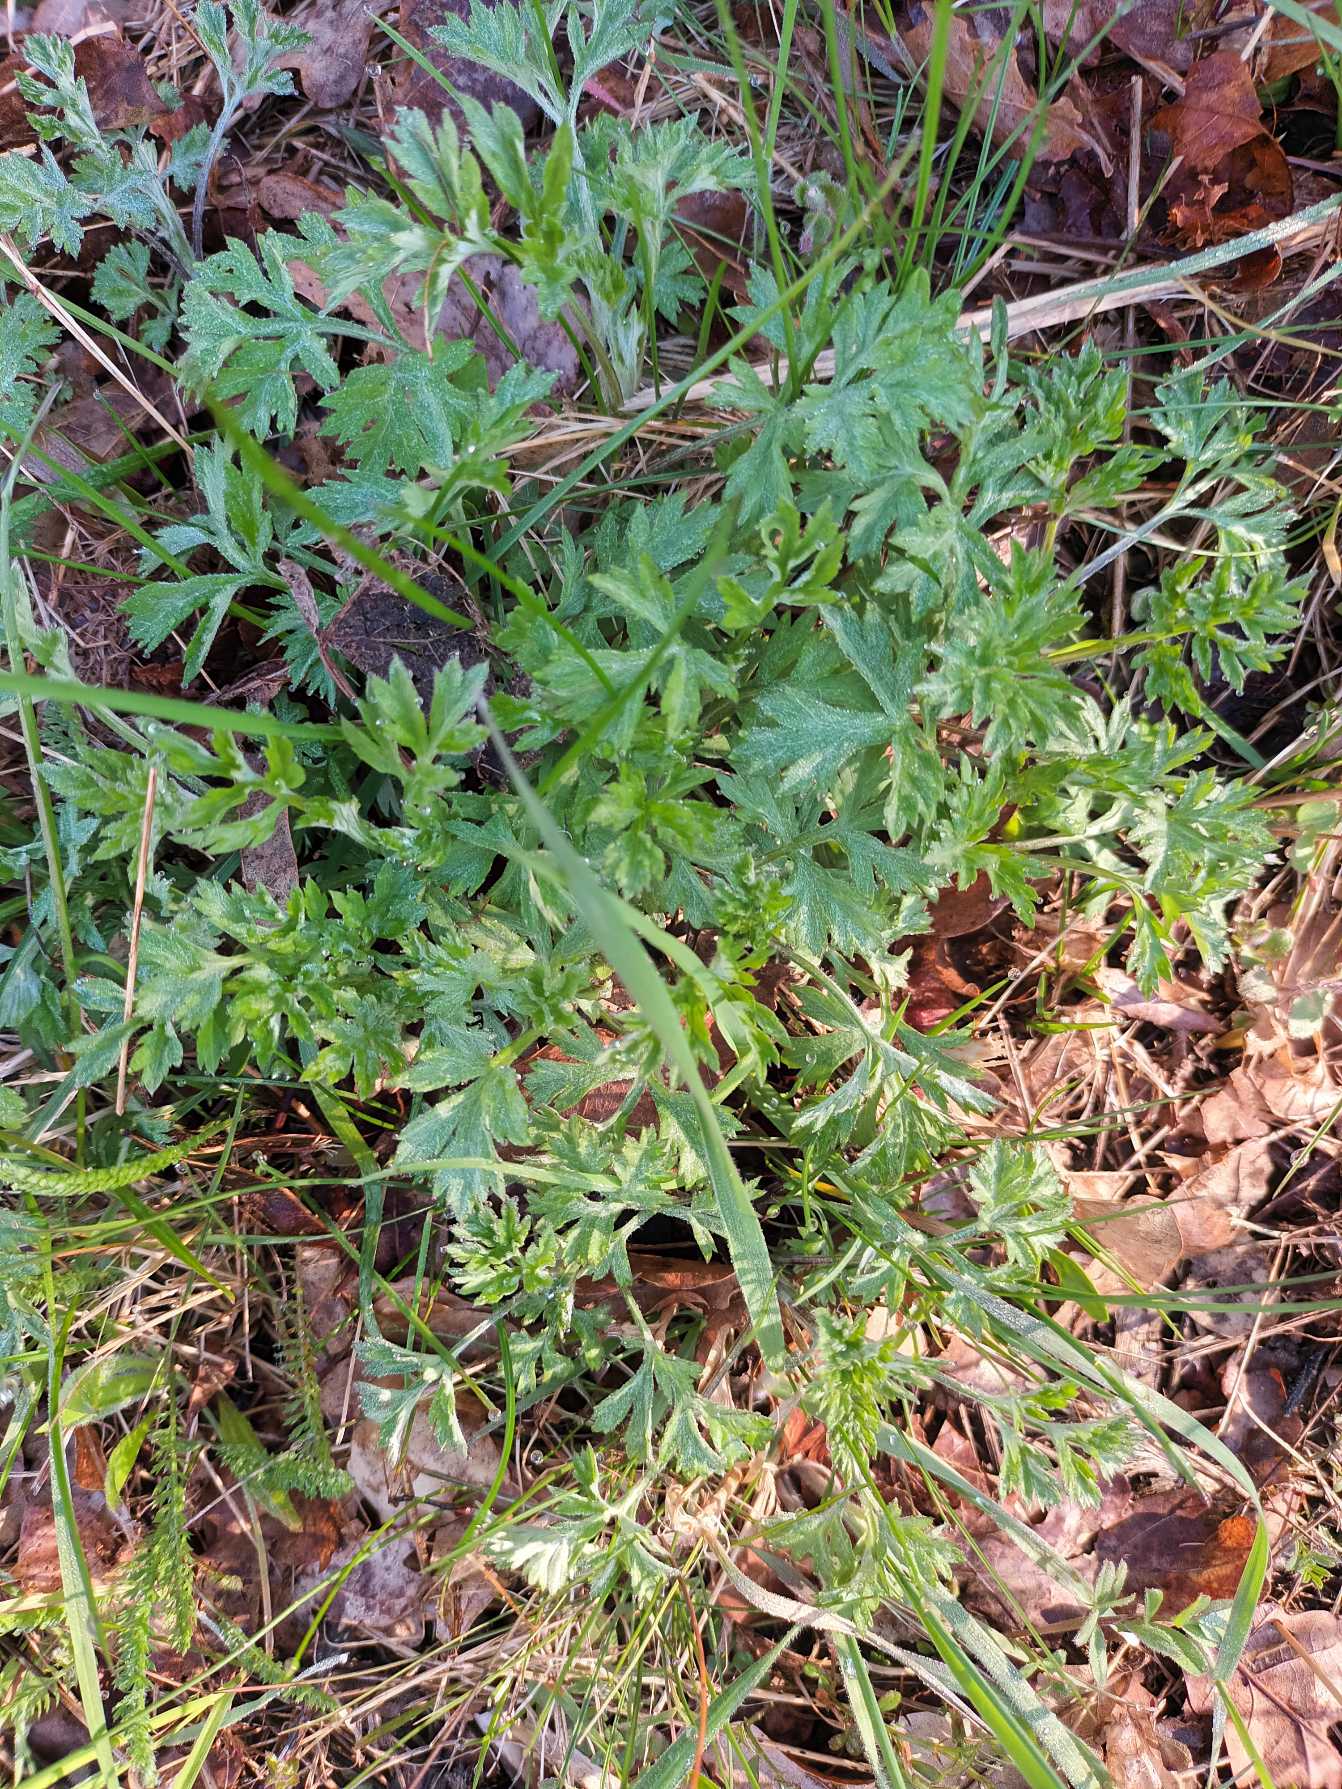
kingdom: Plantae
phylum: Tracheophyta
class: Magnoliopsida
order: Asterales
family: Asteraceae
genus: Artemisia
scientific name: Artemisia vulgaris
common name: Grå-bynke
